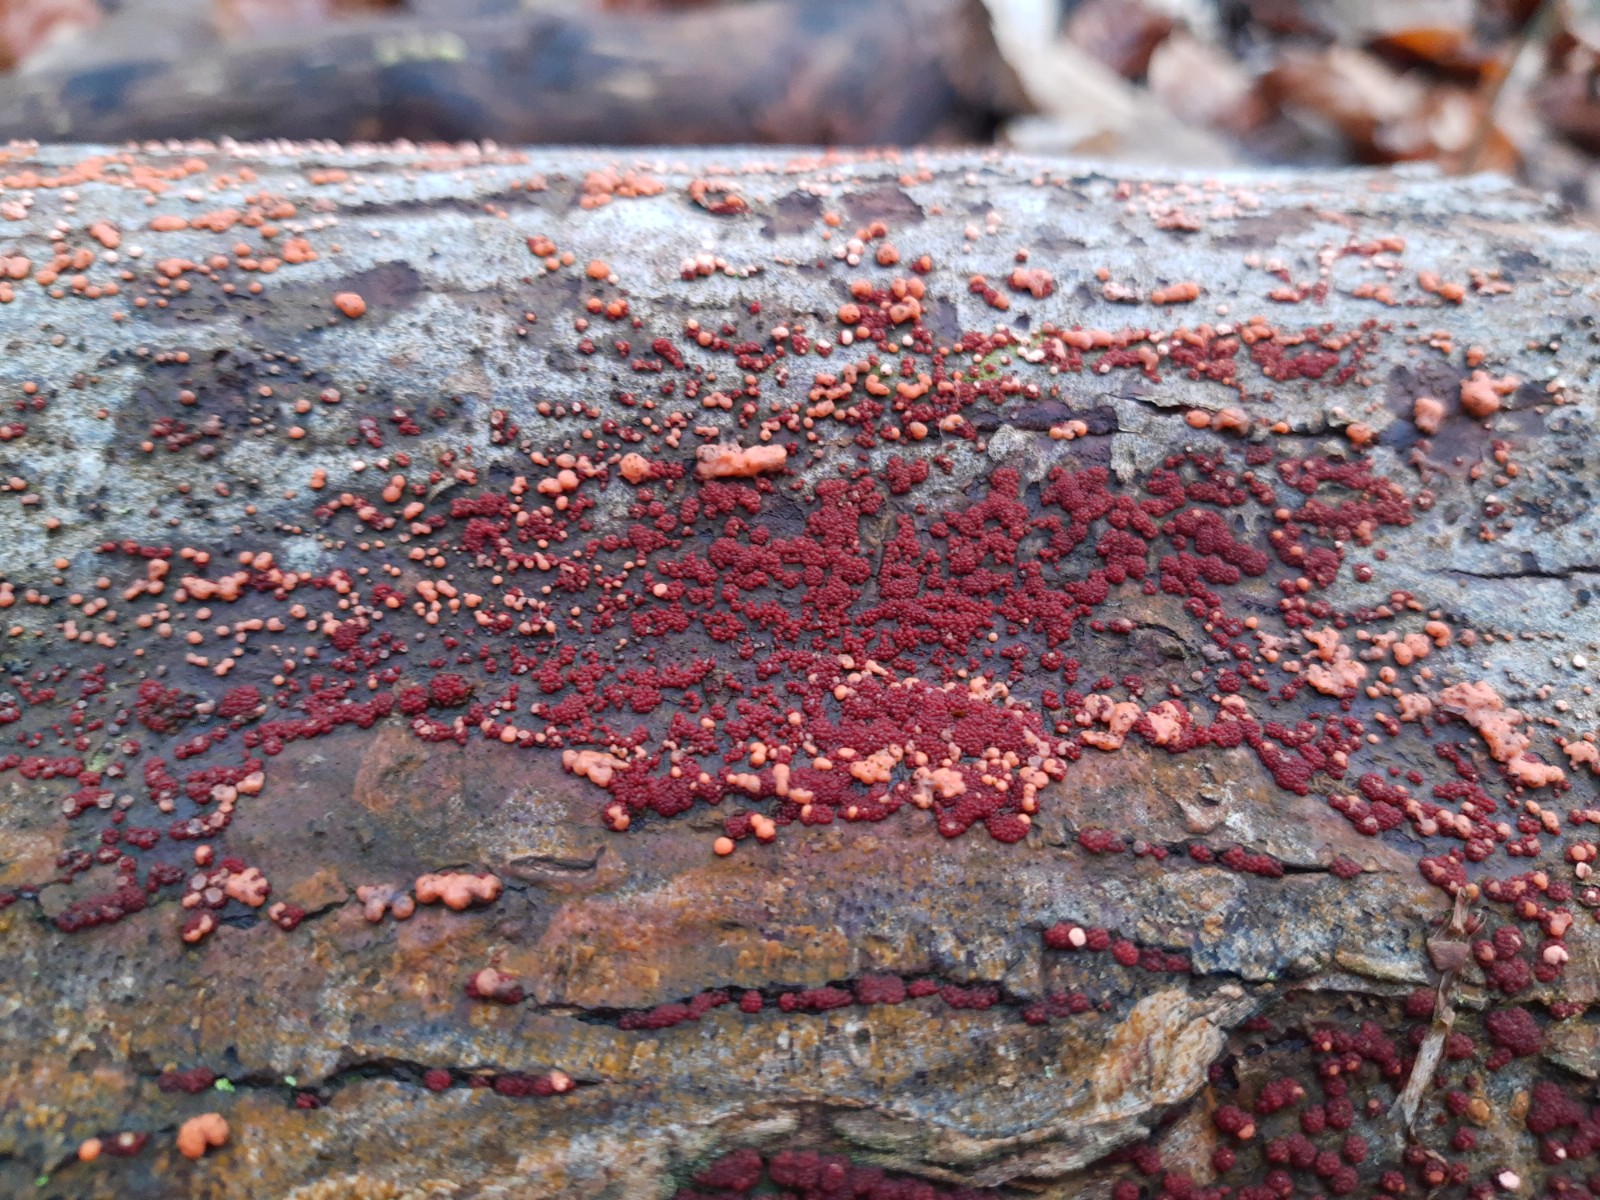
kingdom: Fungi
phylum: Ascomycota
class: Sordariomycetes
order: Hypocreales
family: Nectriaceae
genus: Neonectria
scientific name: Neonectria coccinea
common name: bøgebark-cinnobersvamp
